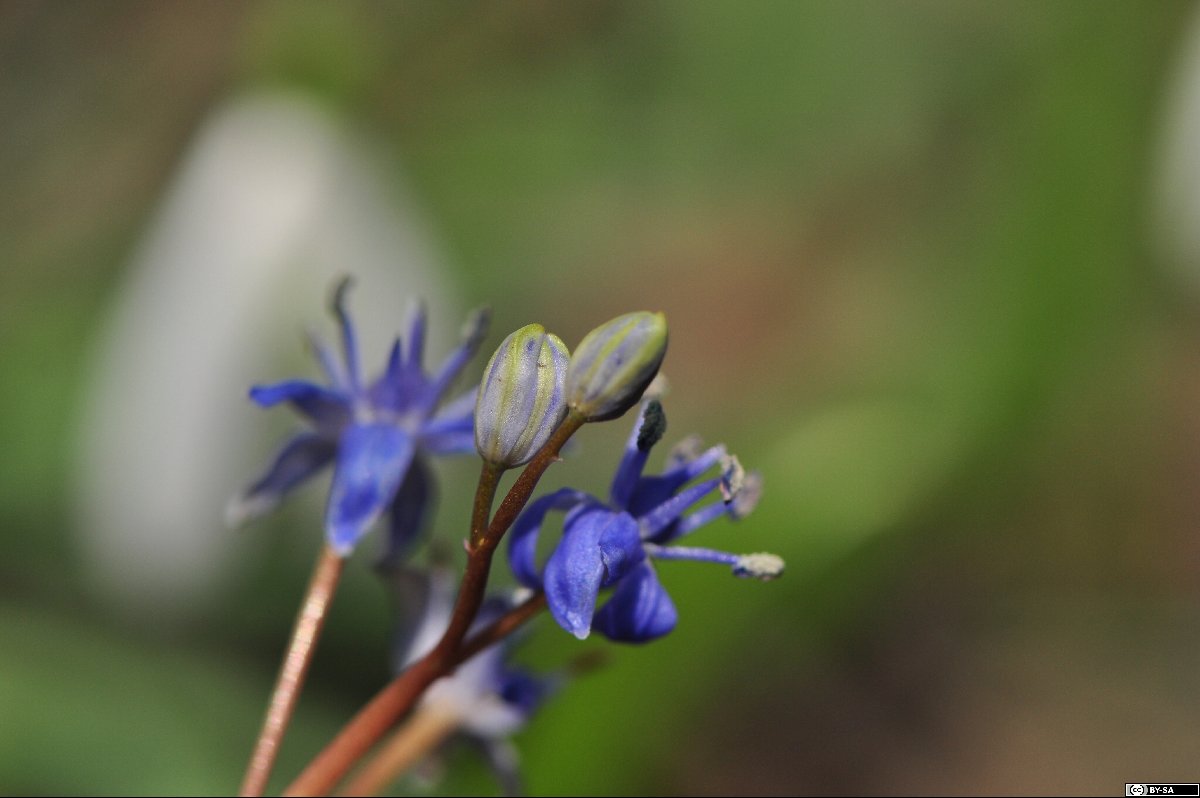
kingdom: Plantae
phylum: Tracheophyta
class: Liliopsida
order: Asparagales
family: Asparagaceae
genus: Scilla
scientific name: Scilla vindobonensis
